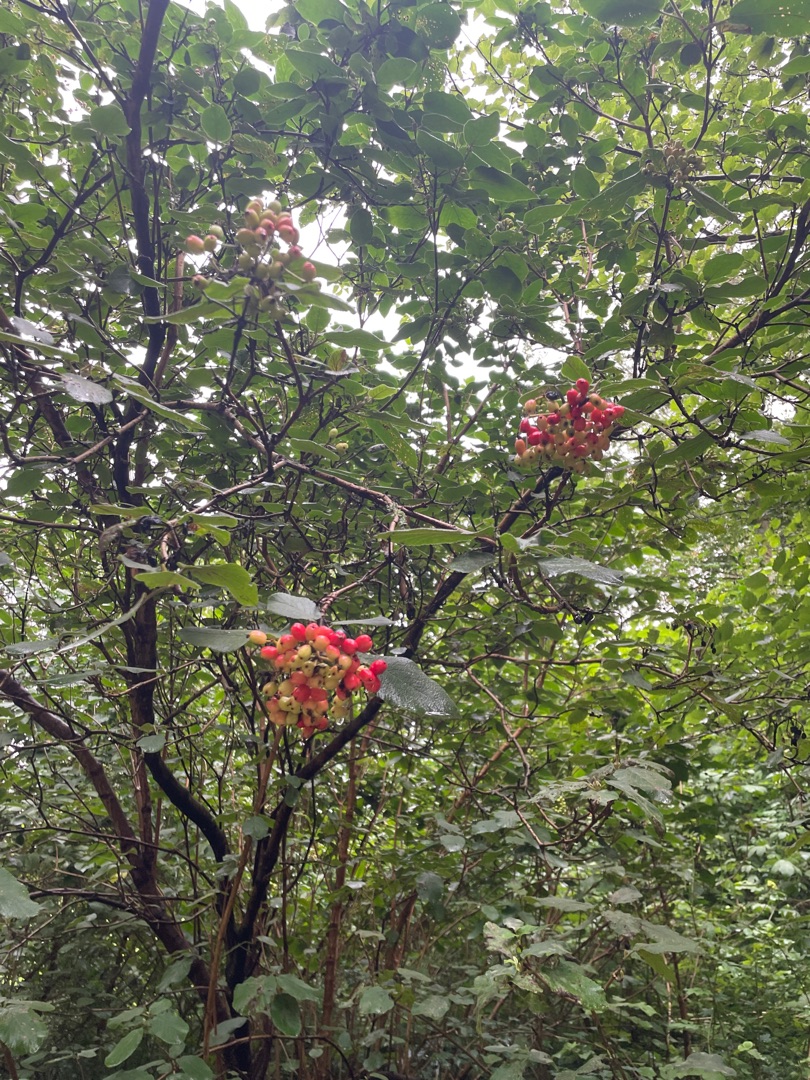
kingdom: Plantae
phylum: Tracheophyta
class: Magnoliopsida
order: Dipsacales
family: Viburnaceae
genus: Viburnum
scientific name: Viburnum lantana
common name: Pibe-kvalkved
